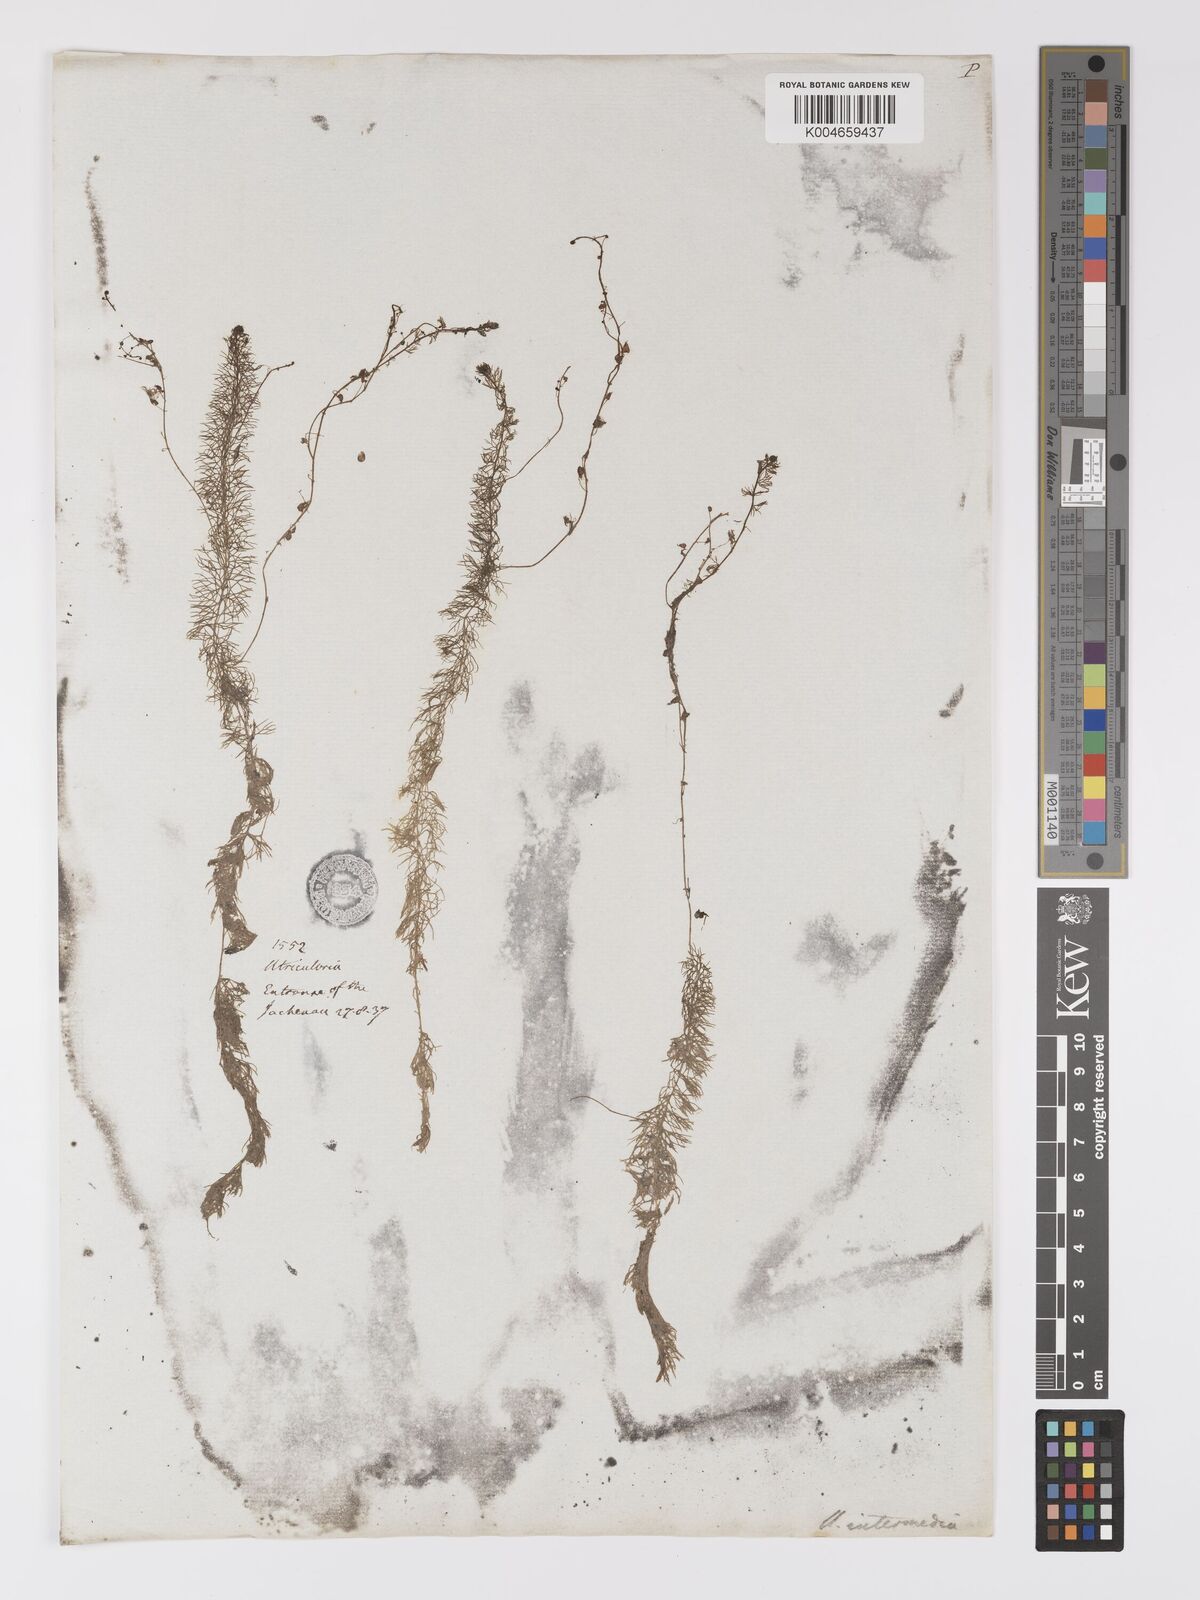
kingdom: Plantae
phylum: Tracheophyta
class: Magnoliopsida
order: Lamiales
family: Lentibulariaceae
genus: Utricularia
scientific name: Utricularia intermedia
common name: Intermediate bladderwort
